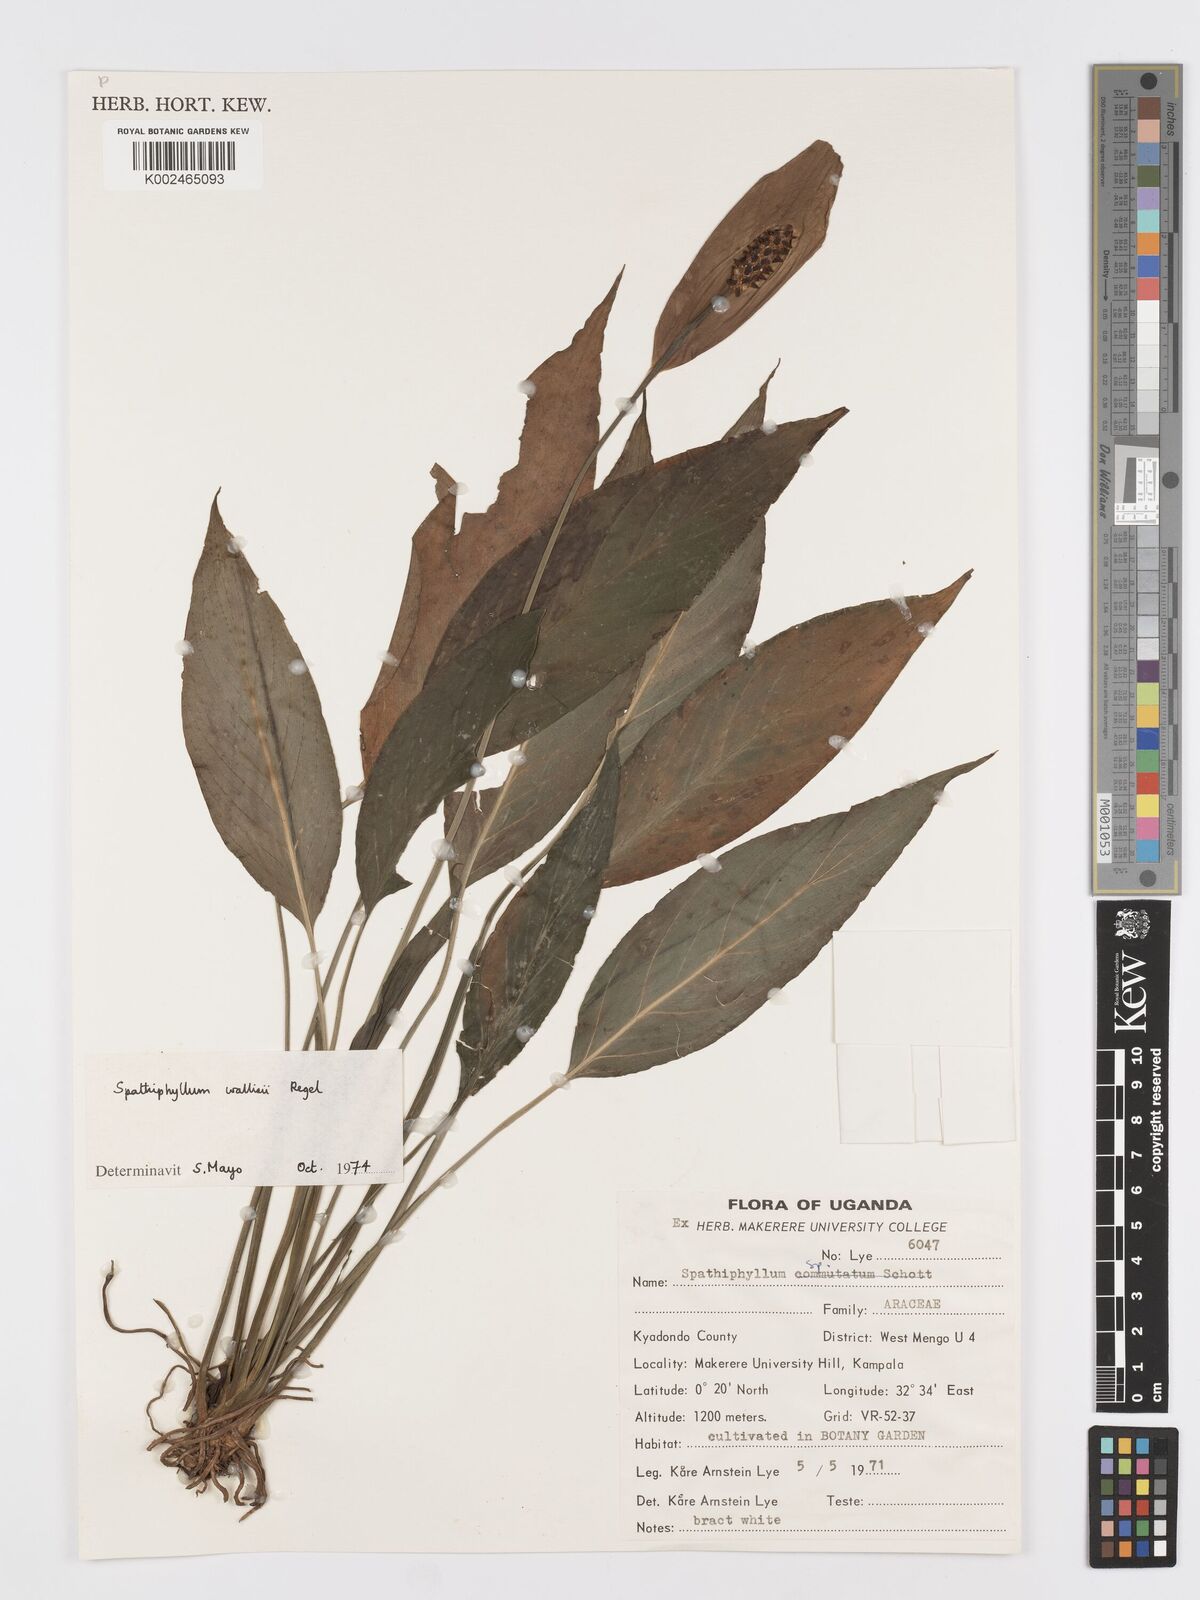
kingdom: Plantae
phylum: Tracheophyta
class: Liliopsida
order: Alismatales
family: Araceae
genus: Spathiphyllum
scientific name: Spathiphyllum wallisii
